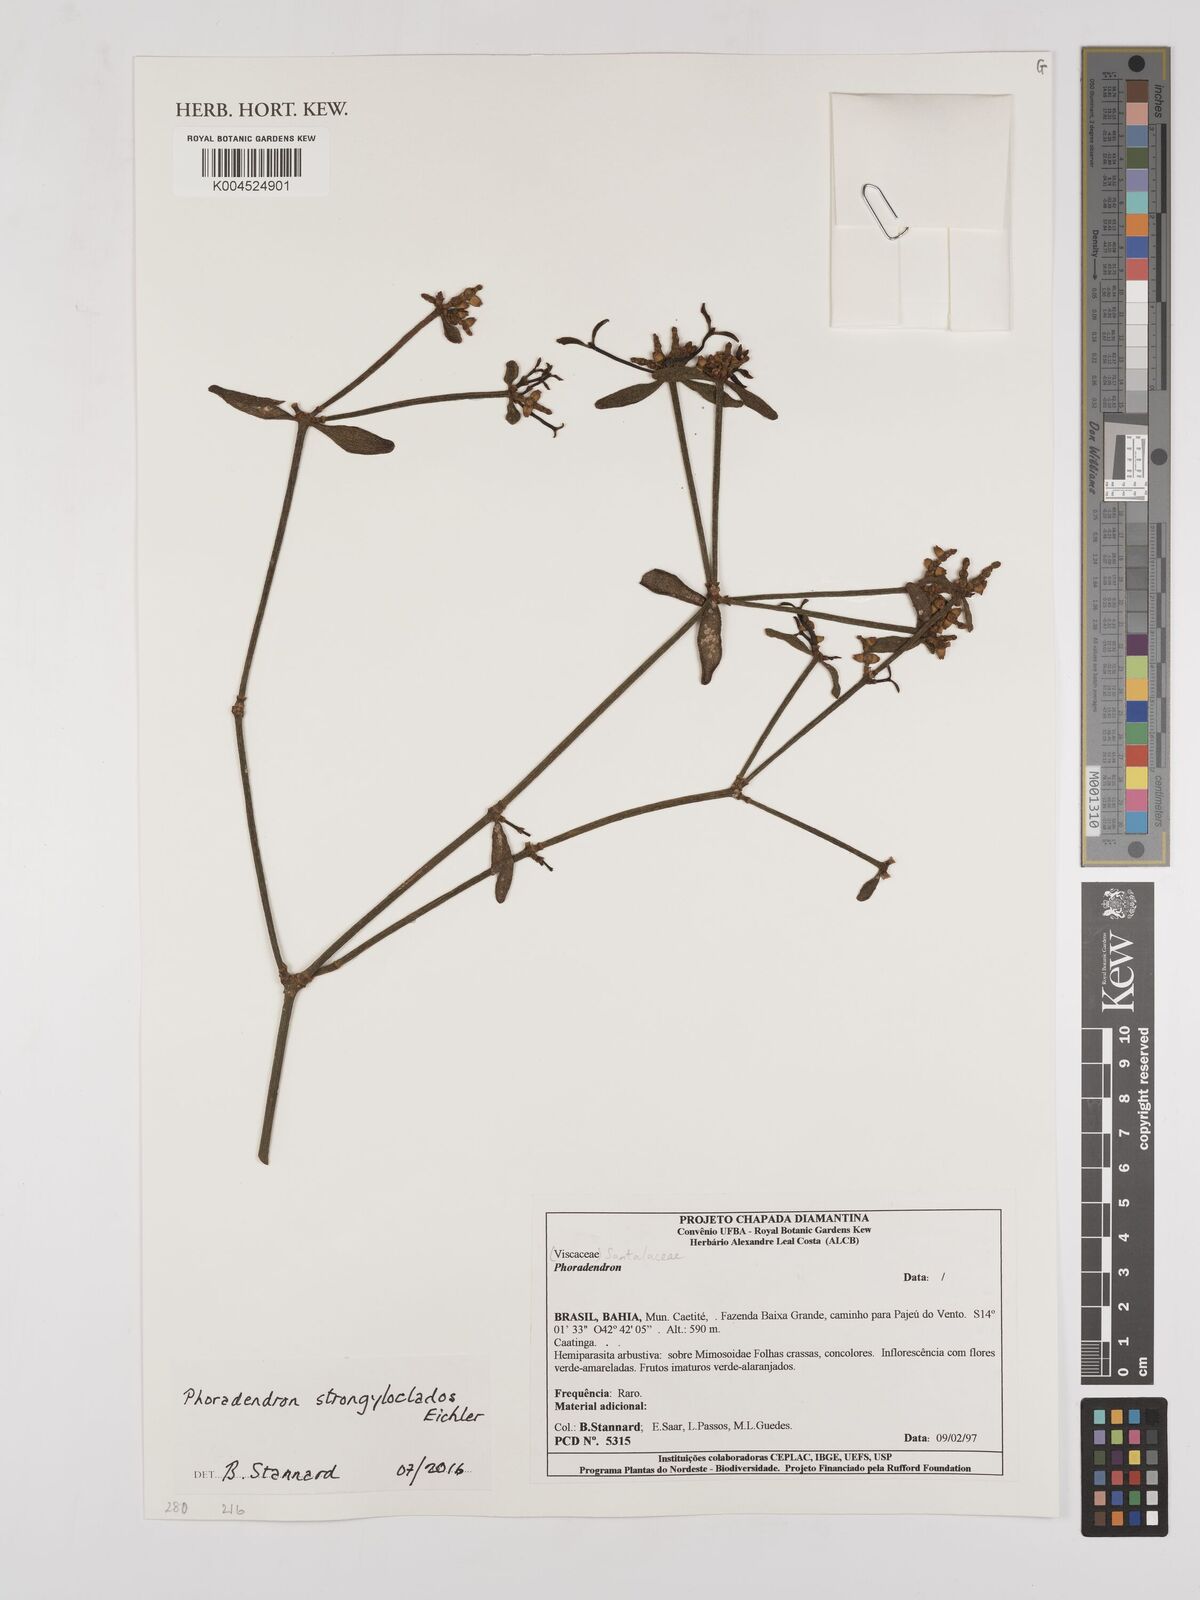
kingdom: Plantae
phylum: Tracheophyta
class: Magnoliopsida
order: Santalales
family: Viscaceae
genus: Phoradendron
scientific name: Phoradendron strongyloclados
